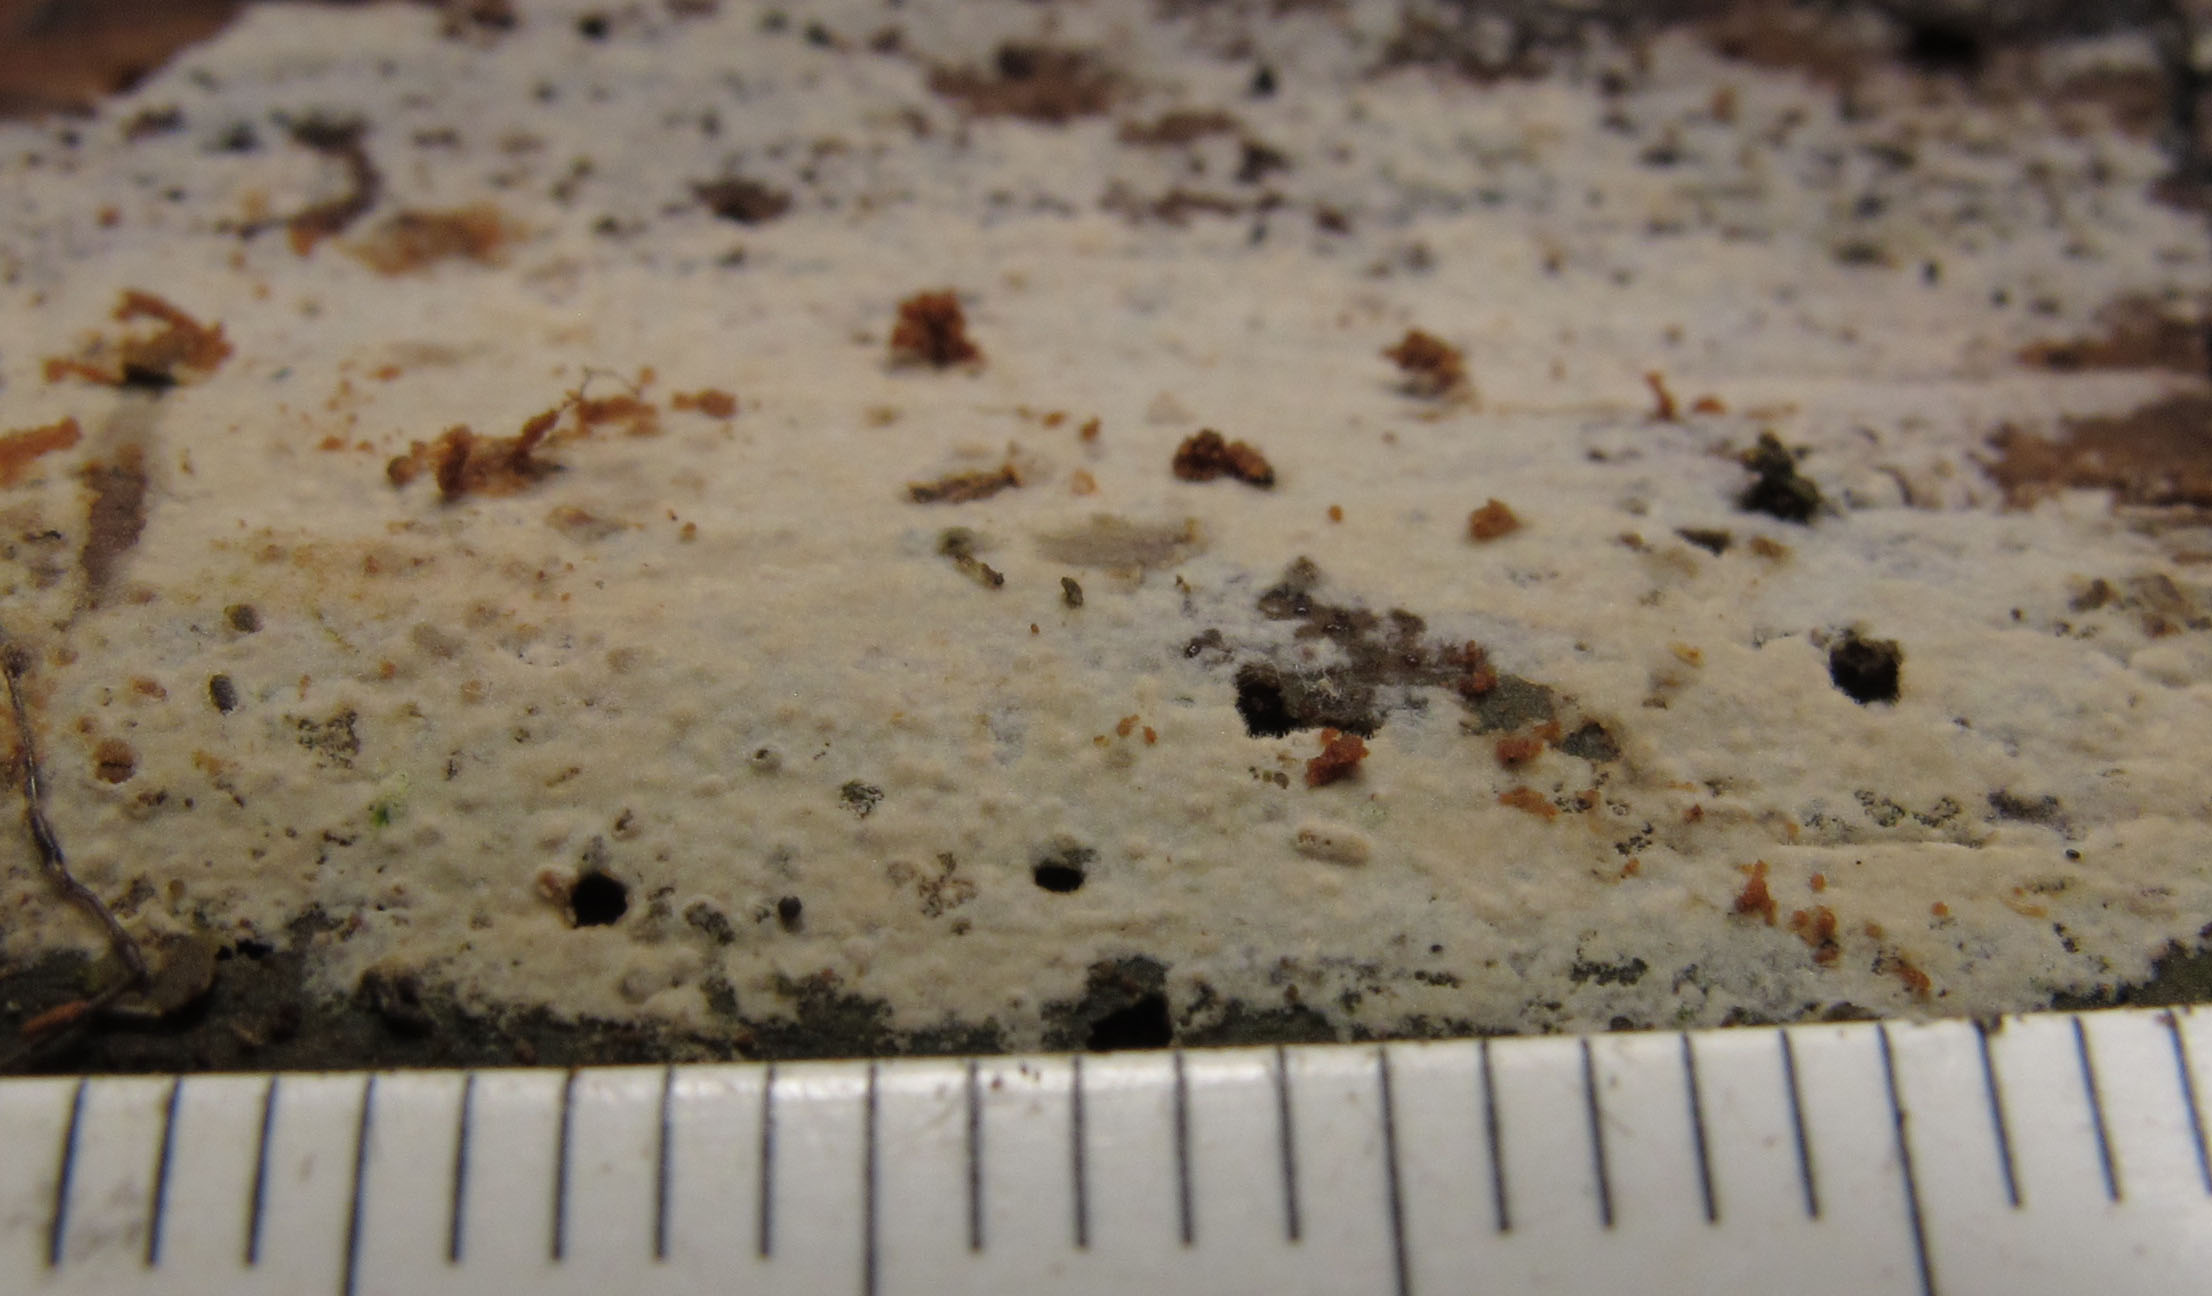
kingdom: Fungi
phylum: Basidiomycota
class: Agaricomycetes
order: Hymenochaetales
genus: Kurtia
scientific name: Kurtia argillacea
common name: Kurts kalkskind
